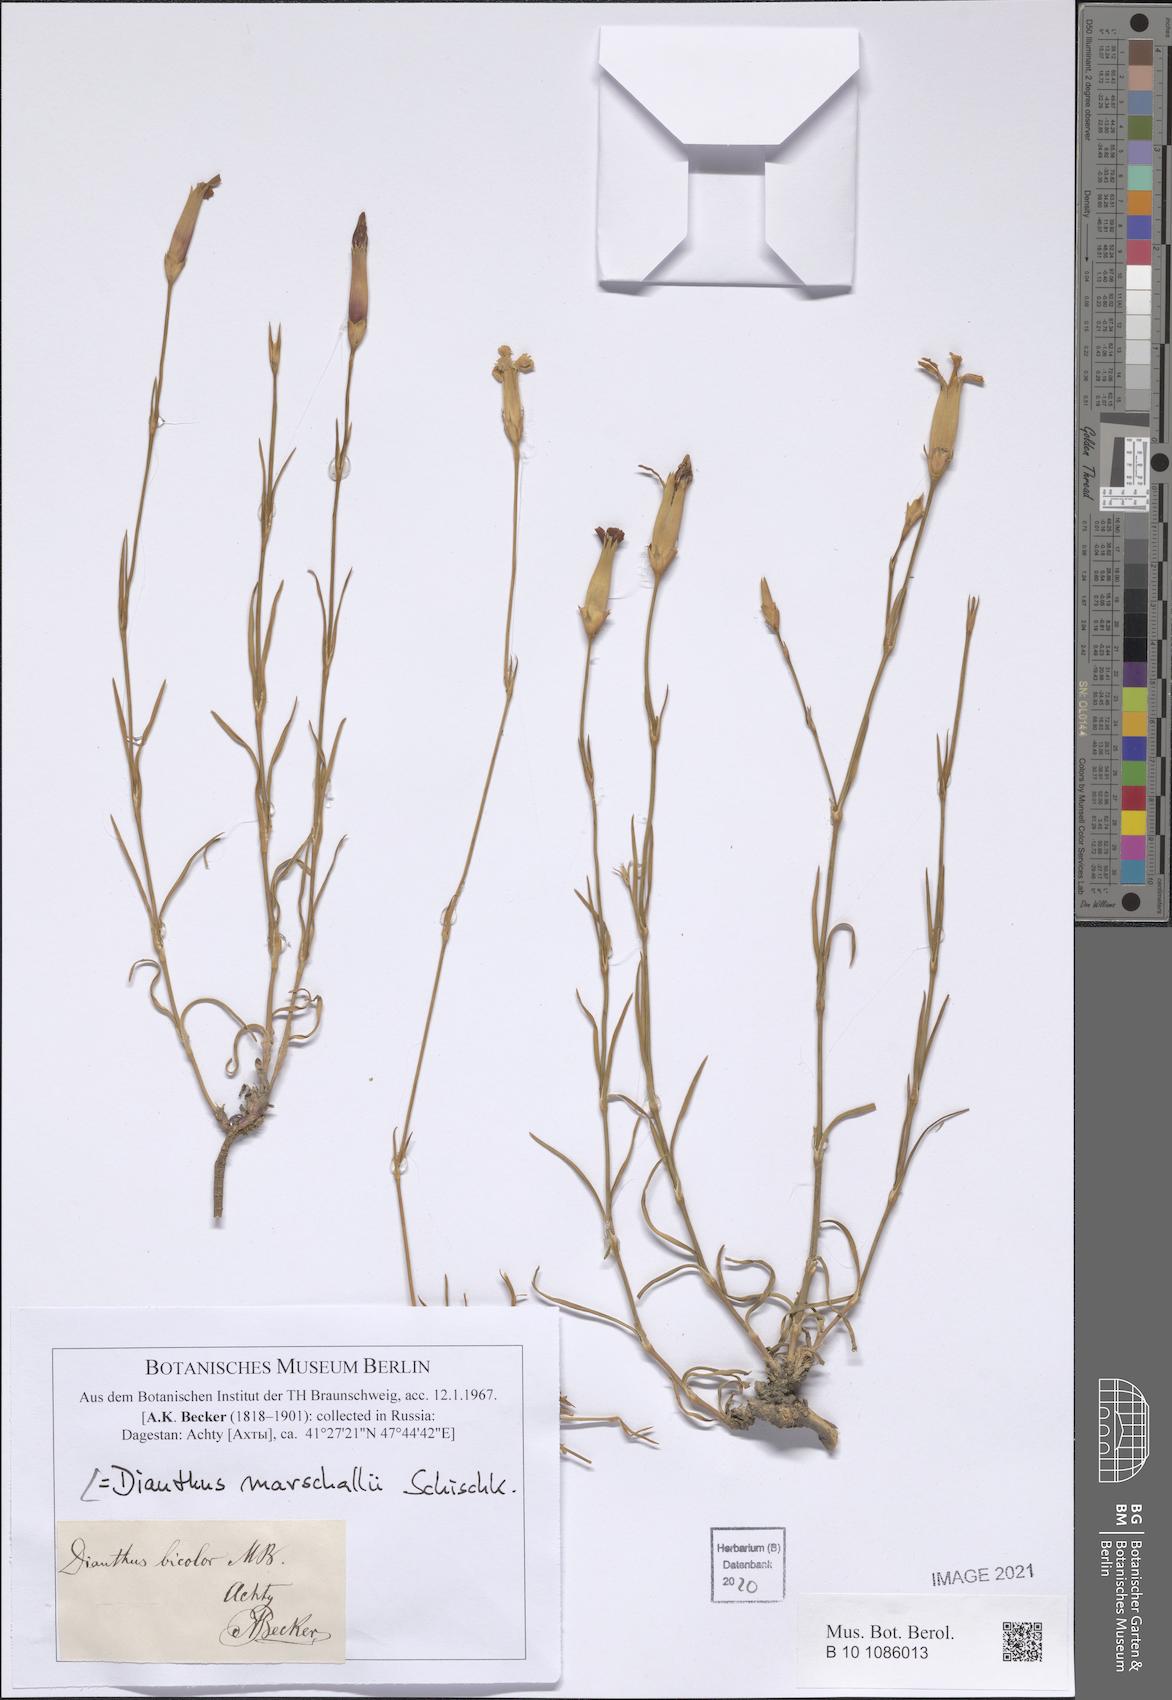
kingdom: Plantae
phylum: Tracheophyta
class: Magnoliopsida
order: Caryophyllales
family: Caryophyllaceae
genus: Dianthus
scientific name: Dianthus marschallii
